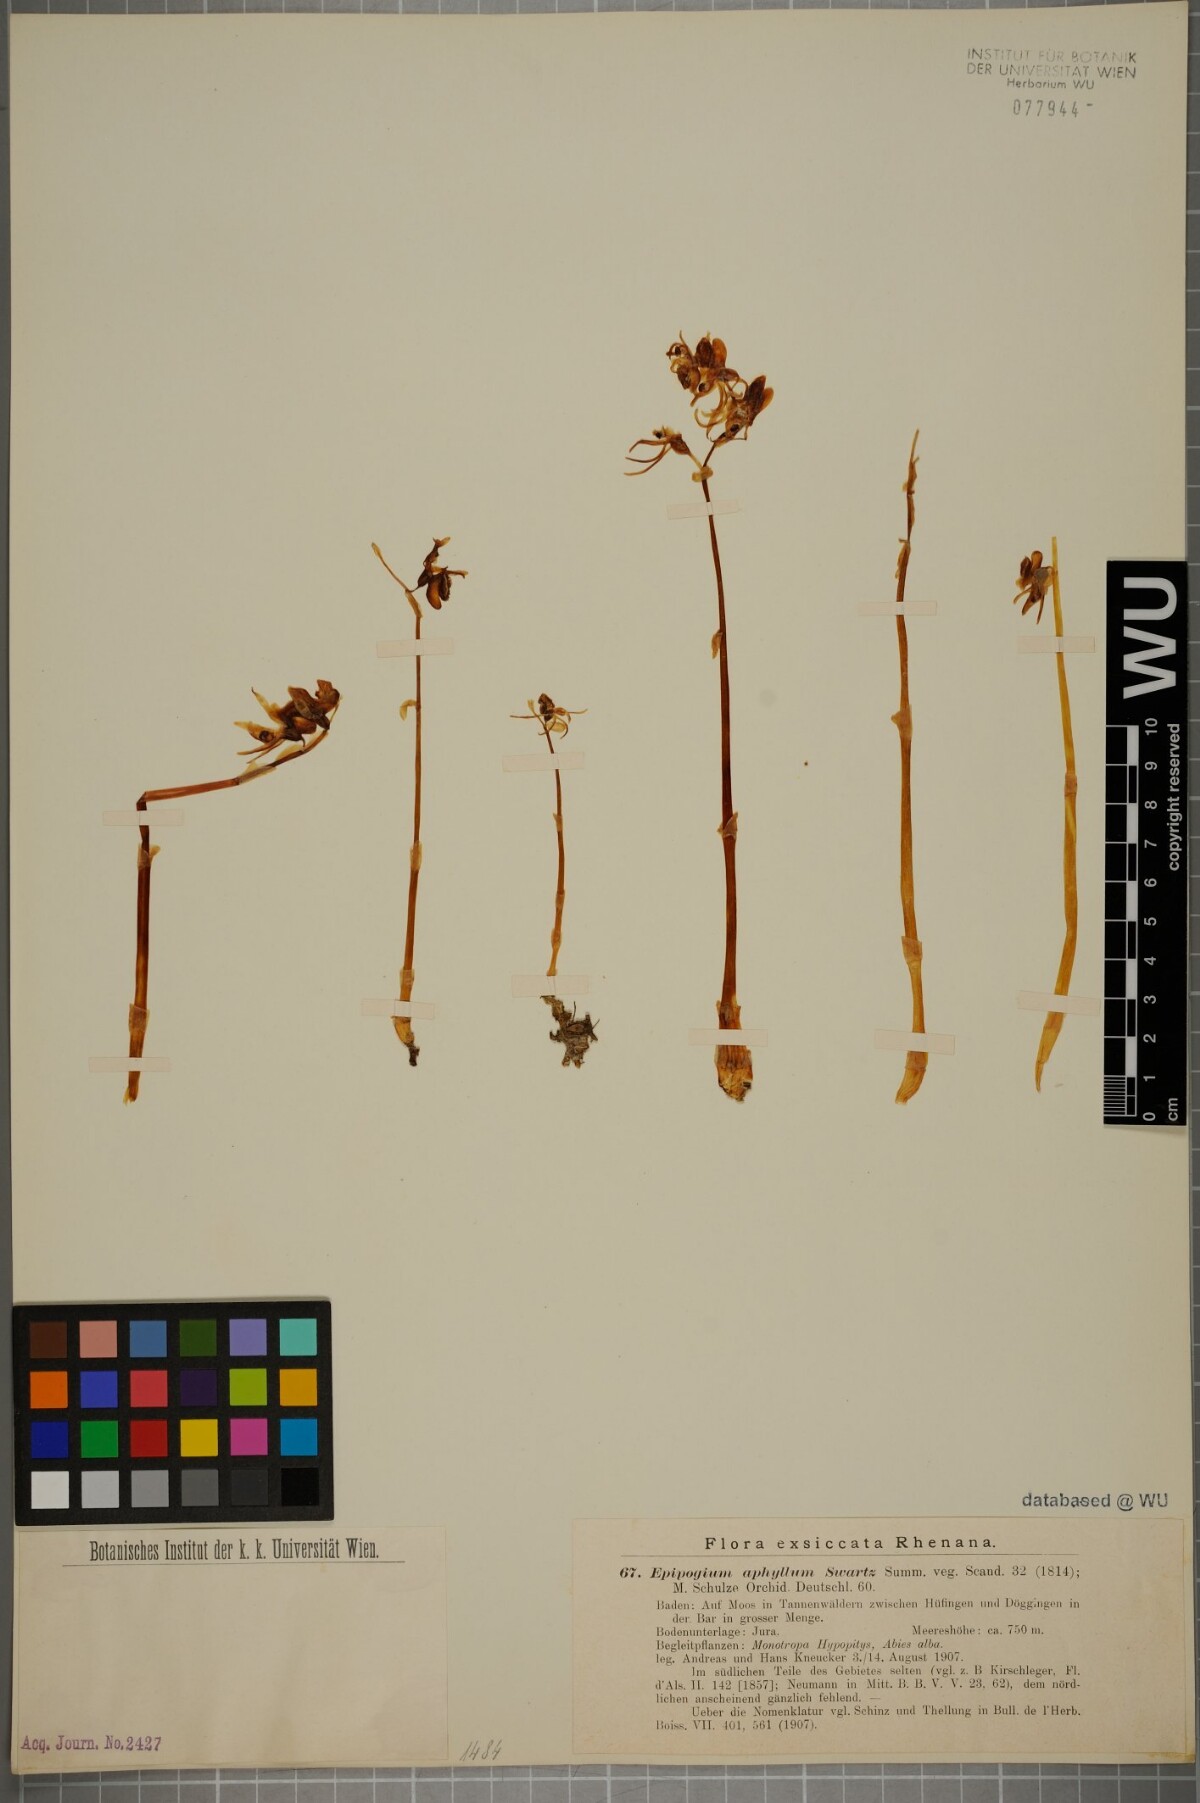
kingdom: Plantae
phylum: Tracheophyta
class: Liliopsida
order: Asparagales
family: Orchidaceae
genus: Epipogium
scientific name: Epipogium aphyllum
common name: Ghost orchid
